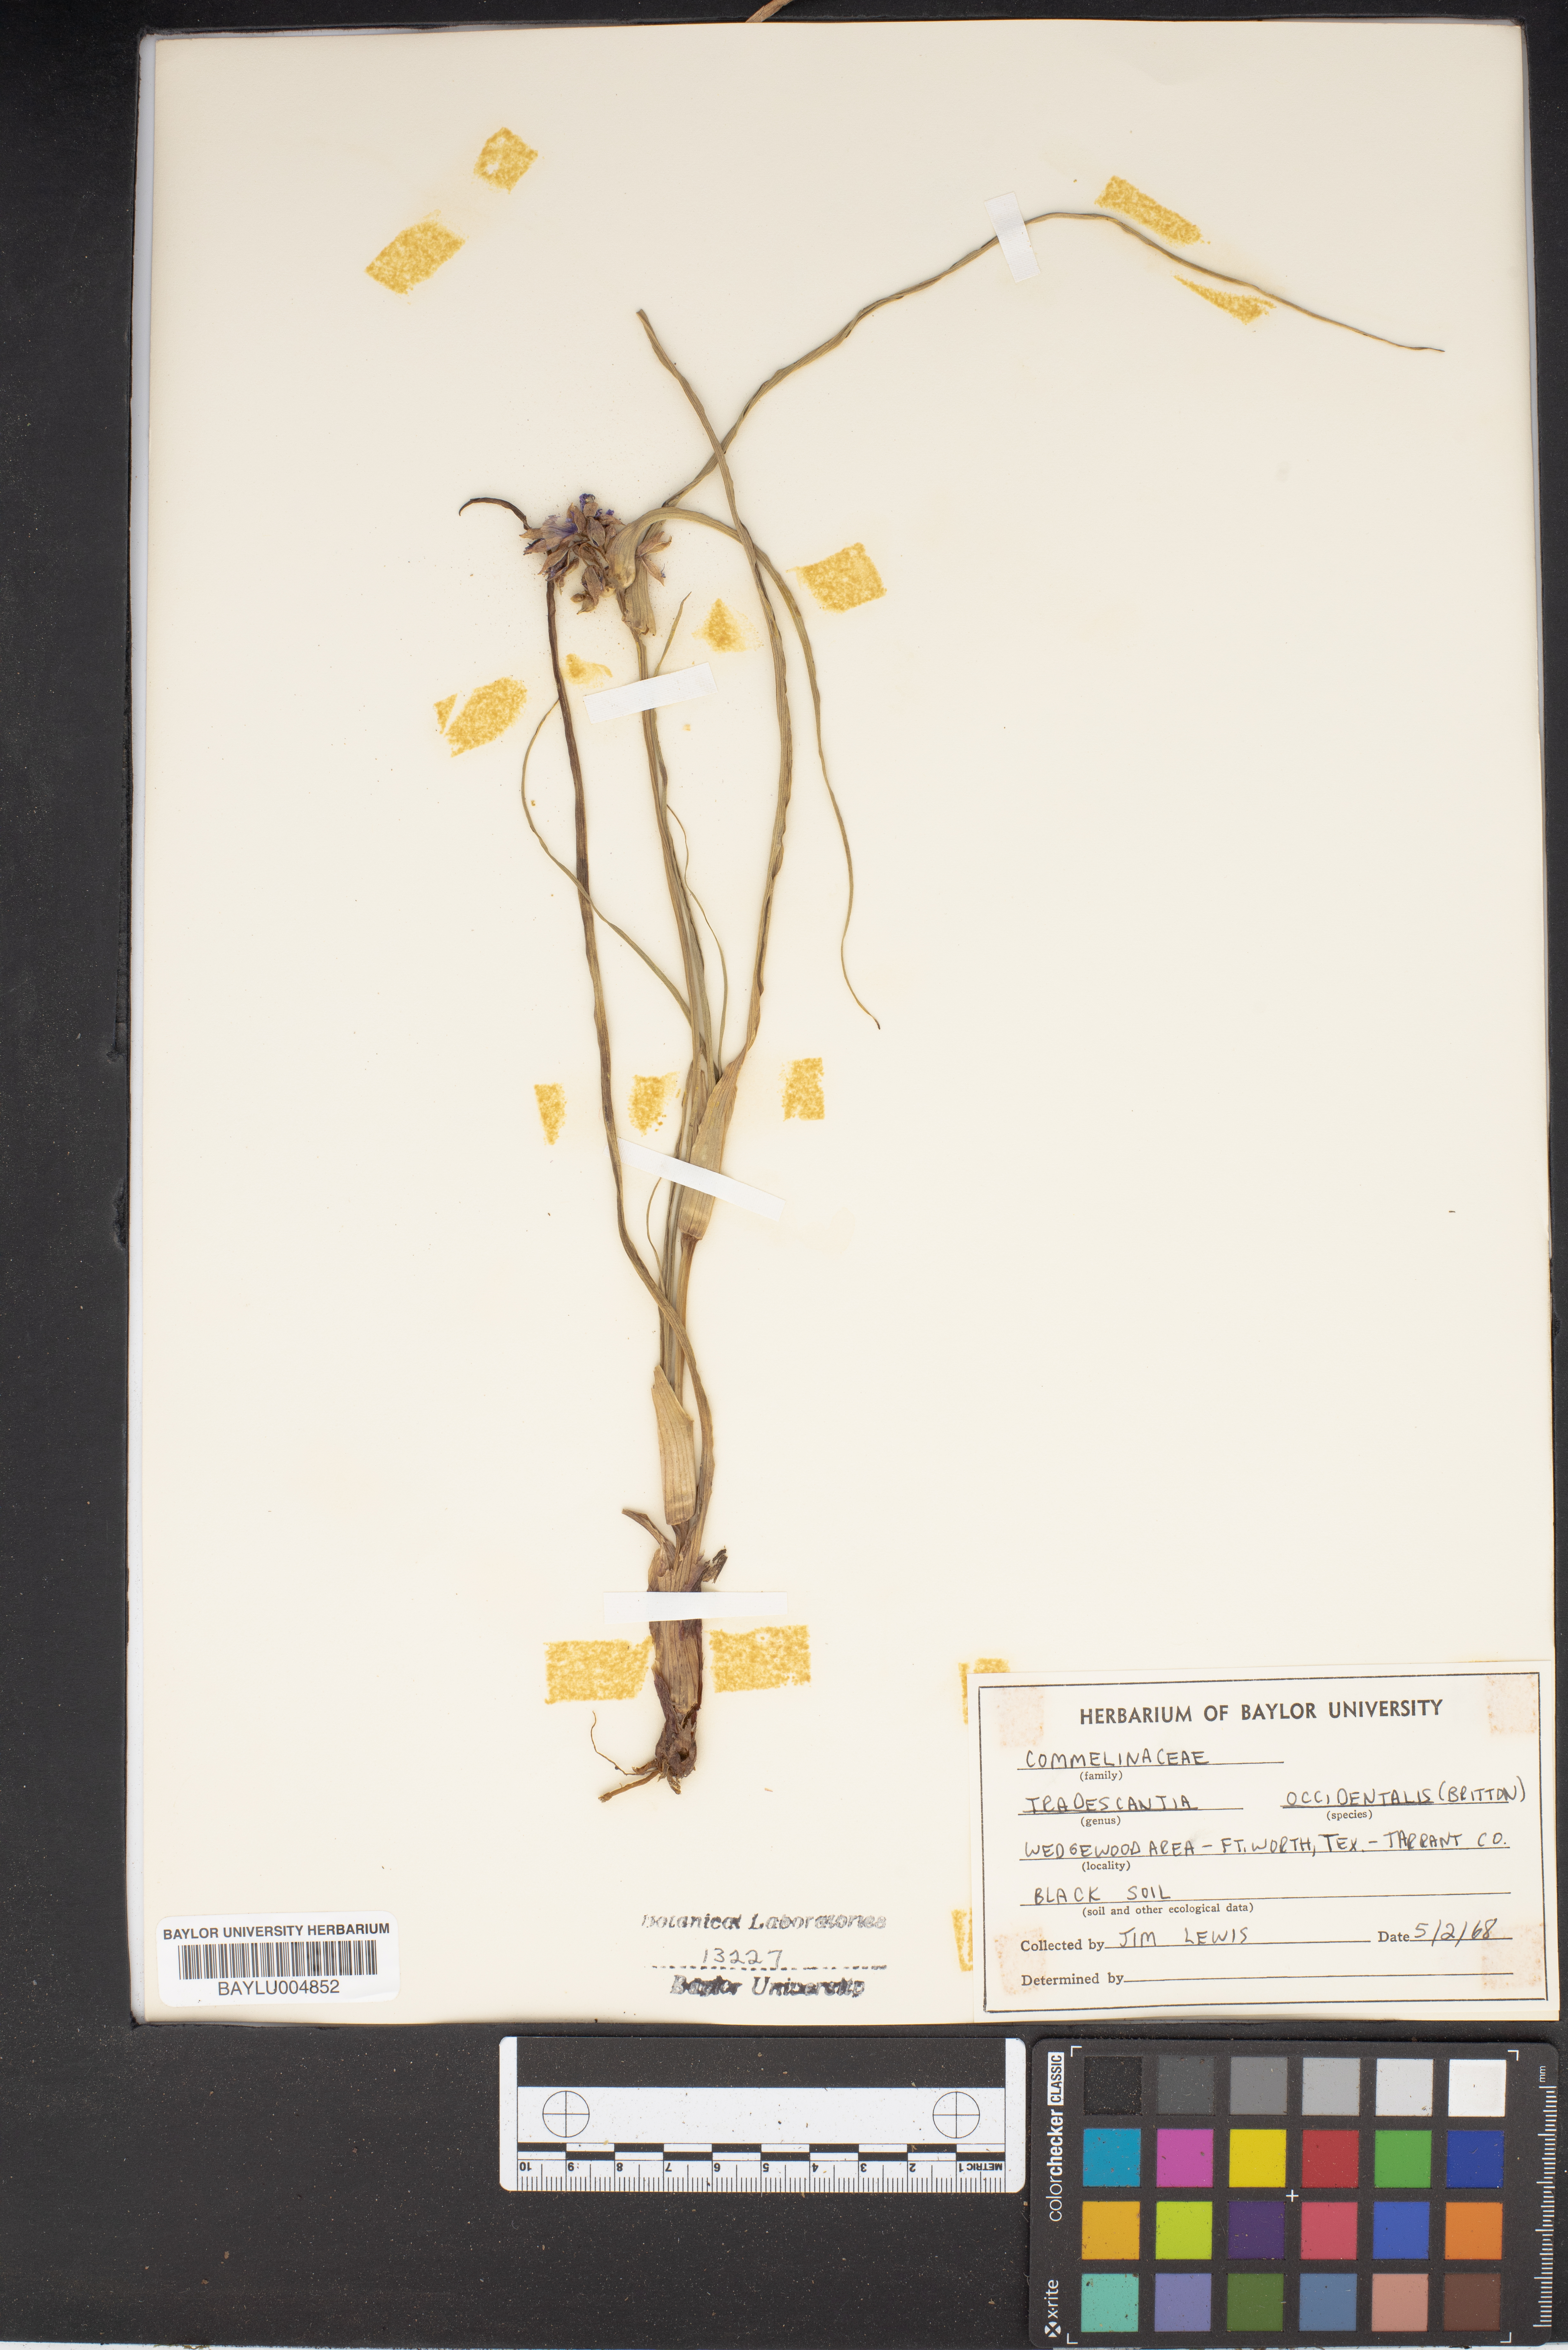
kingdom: Plantae
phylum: Tracheophyta
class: Liliopsida
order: Commelinales
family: Commelinaceae
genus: Tradescantia
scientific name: Tradescantia occidentalis
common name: Prairie spiderwort
